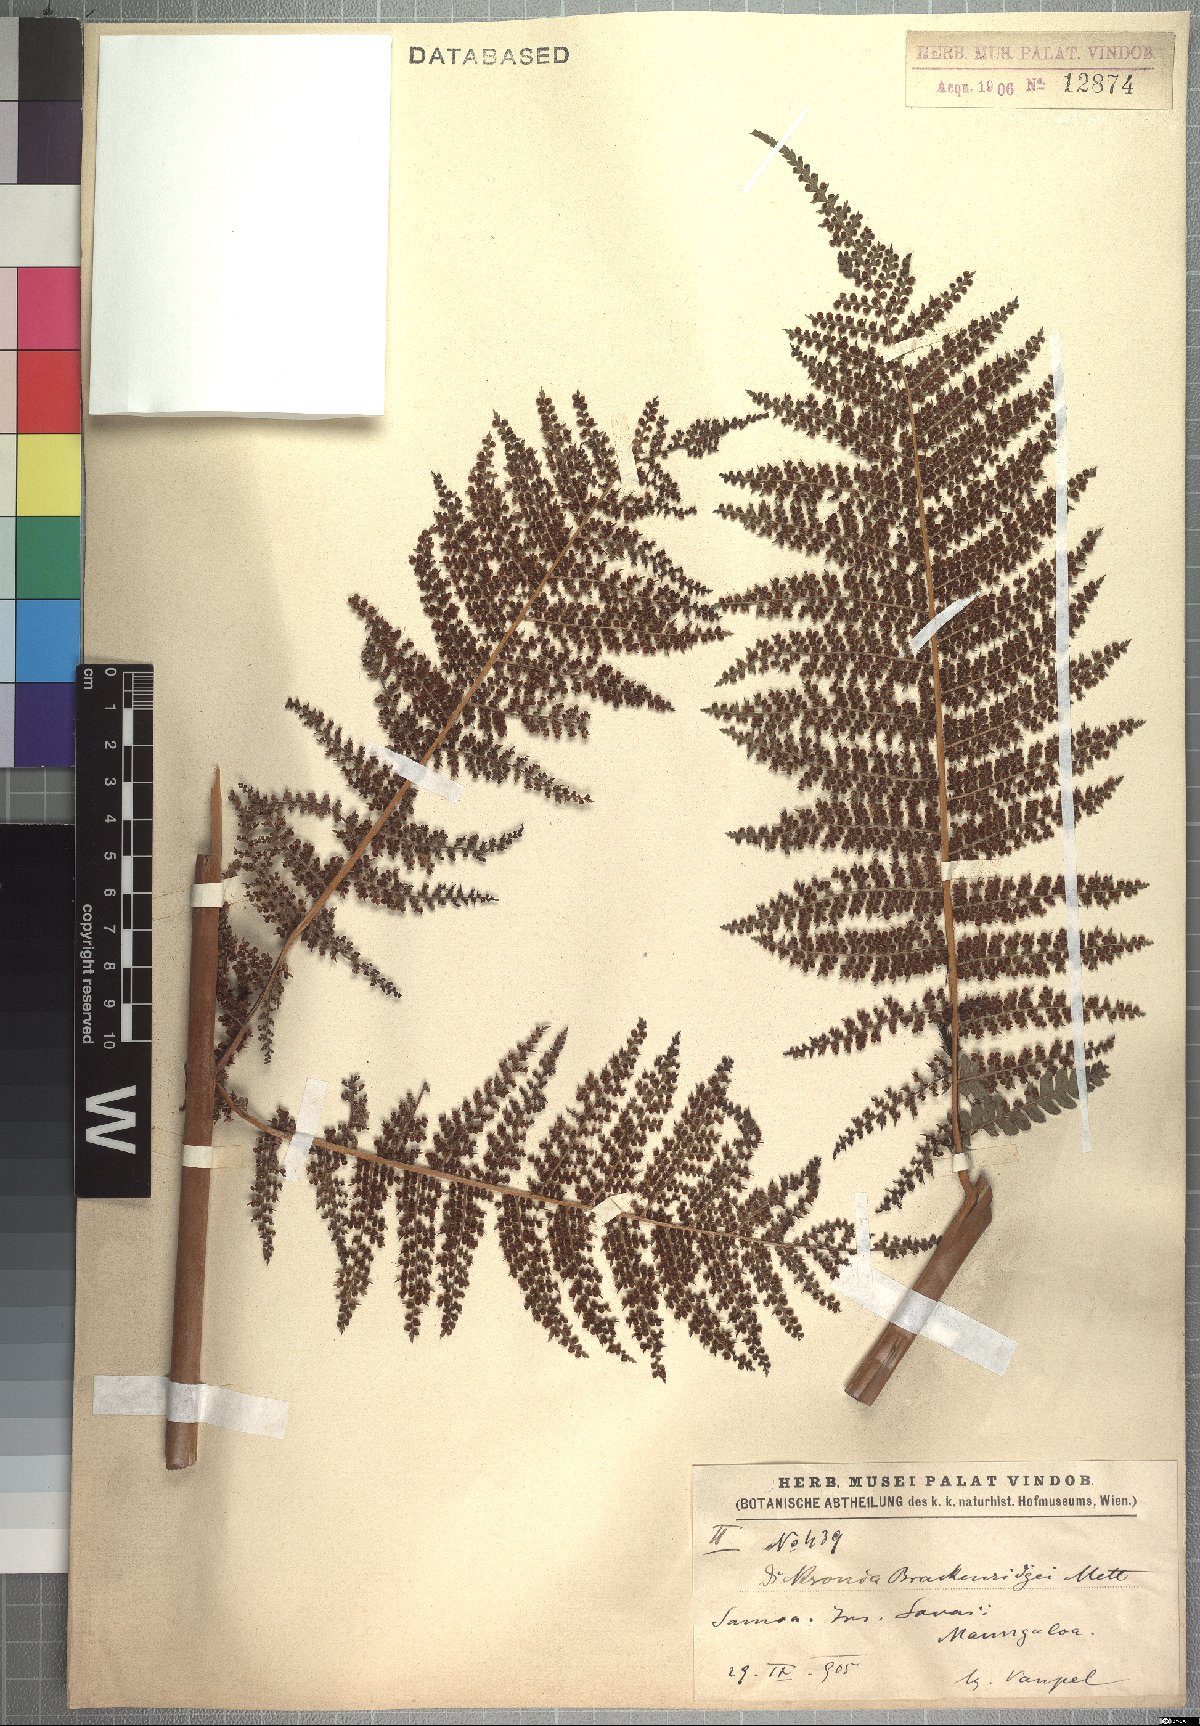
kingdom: Plantae
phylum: Tracheophyta
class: Polypodiopsida
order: Cyatheales
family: Dicksoniaceae
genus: Dicksonia
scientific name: Dicksonia brackenridgei
